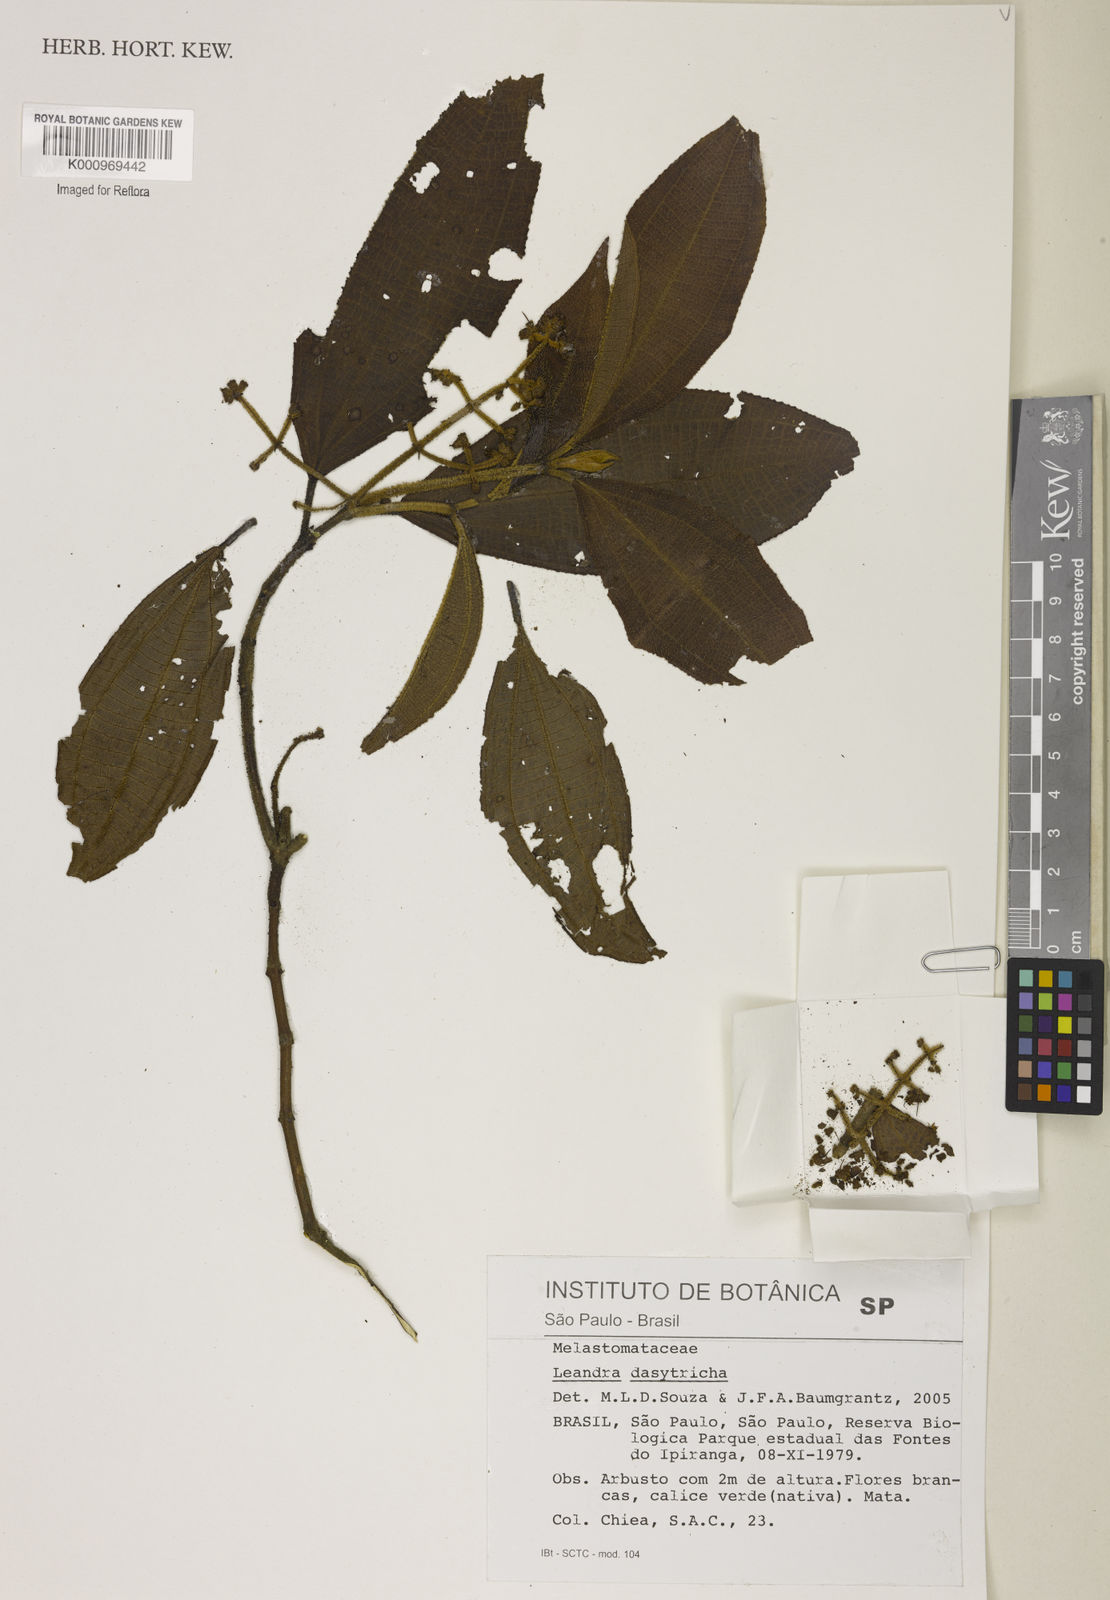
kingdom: Plantae
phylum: Tracheophyta
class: Magnoliopsida
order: Myrtales
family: Melastomataceae
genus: Miconia
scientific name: Miconia dasytricha
